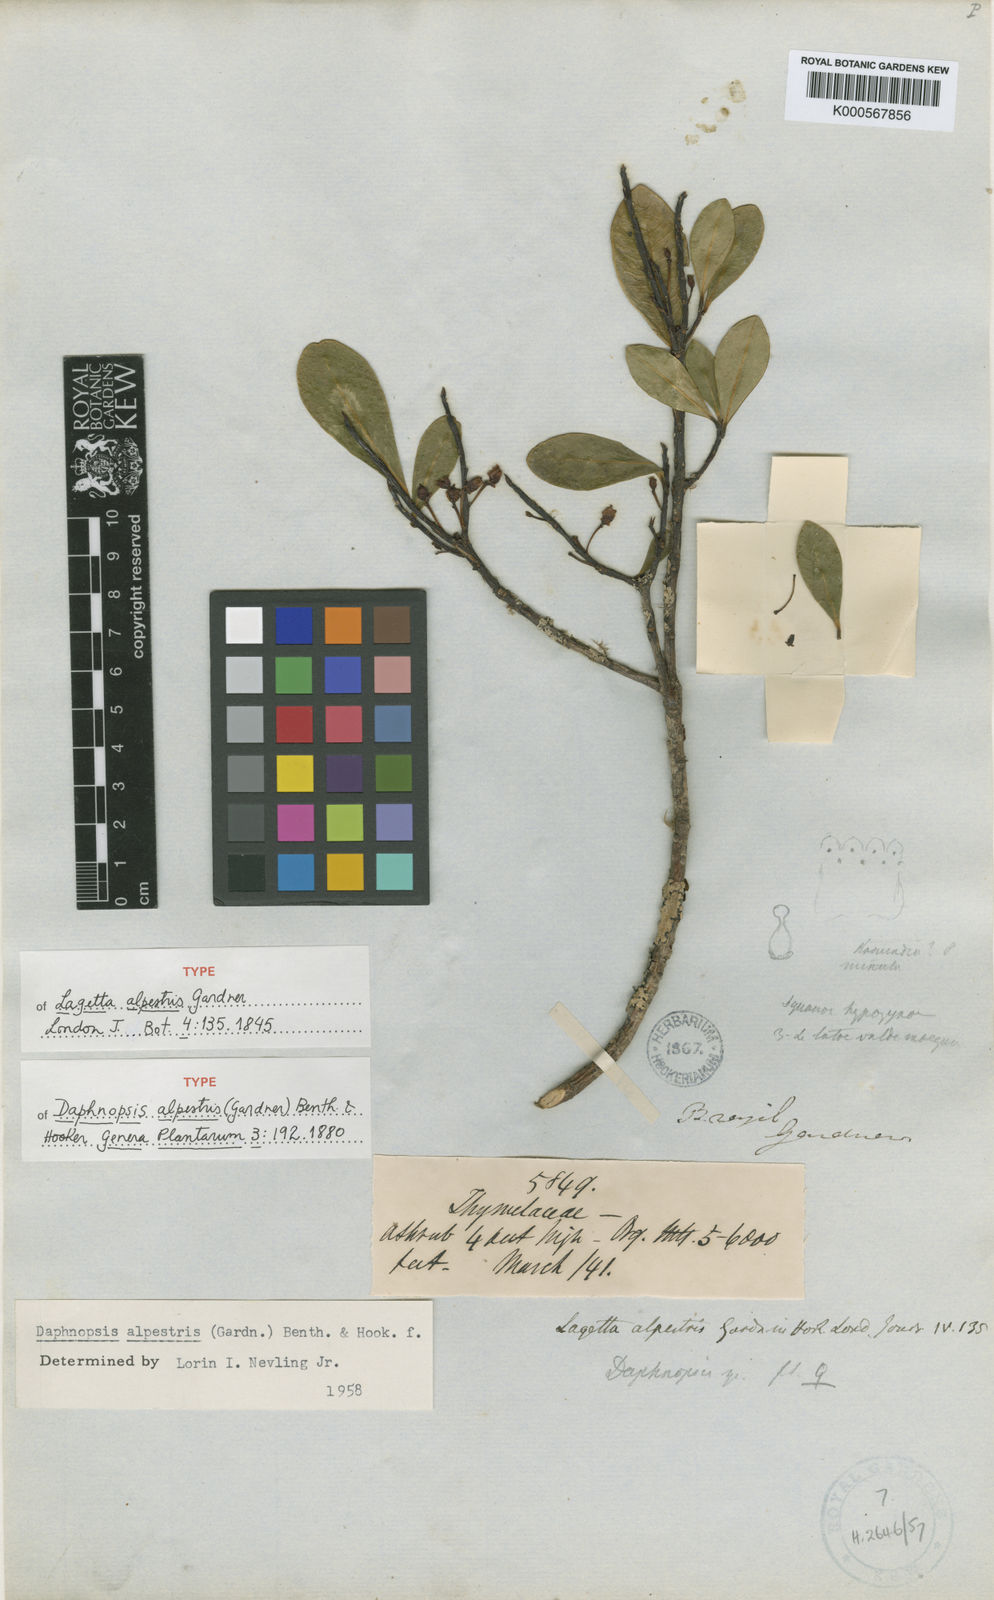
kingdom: Plantae
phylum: Tracheophyta
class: Magnoliopsida
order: Malvales
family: Thymelaeaceae
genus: Daphnopsis
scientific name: Daphnopsis
